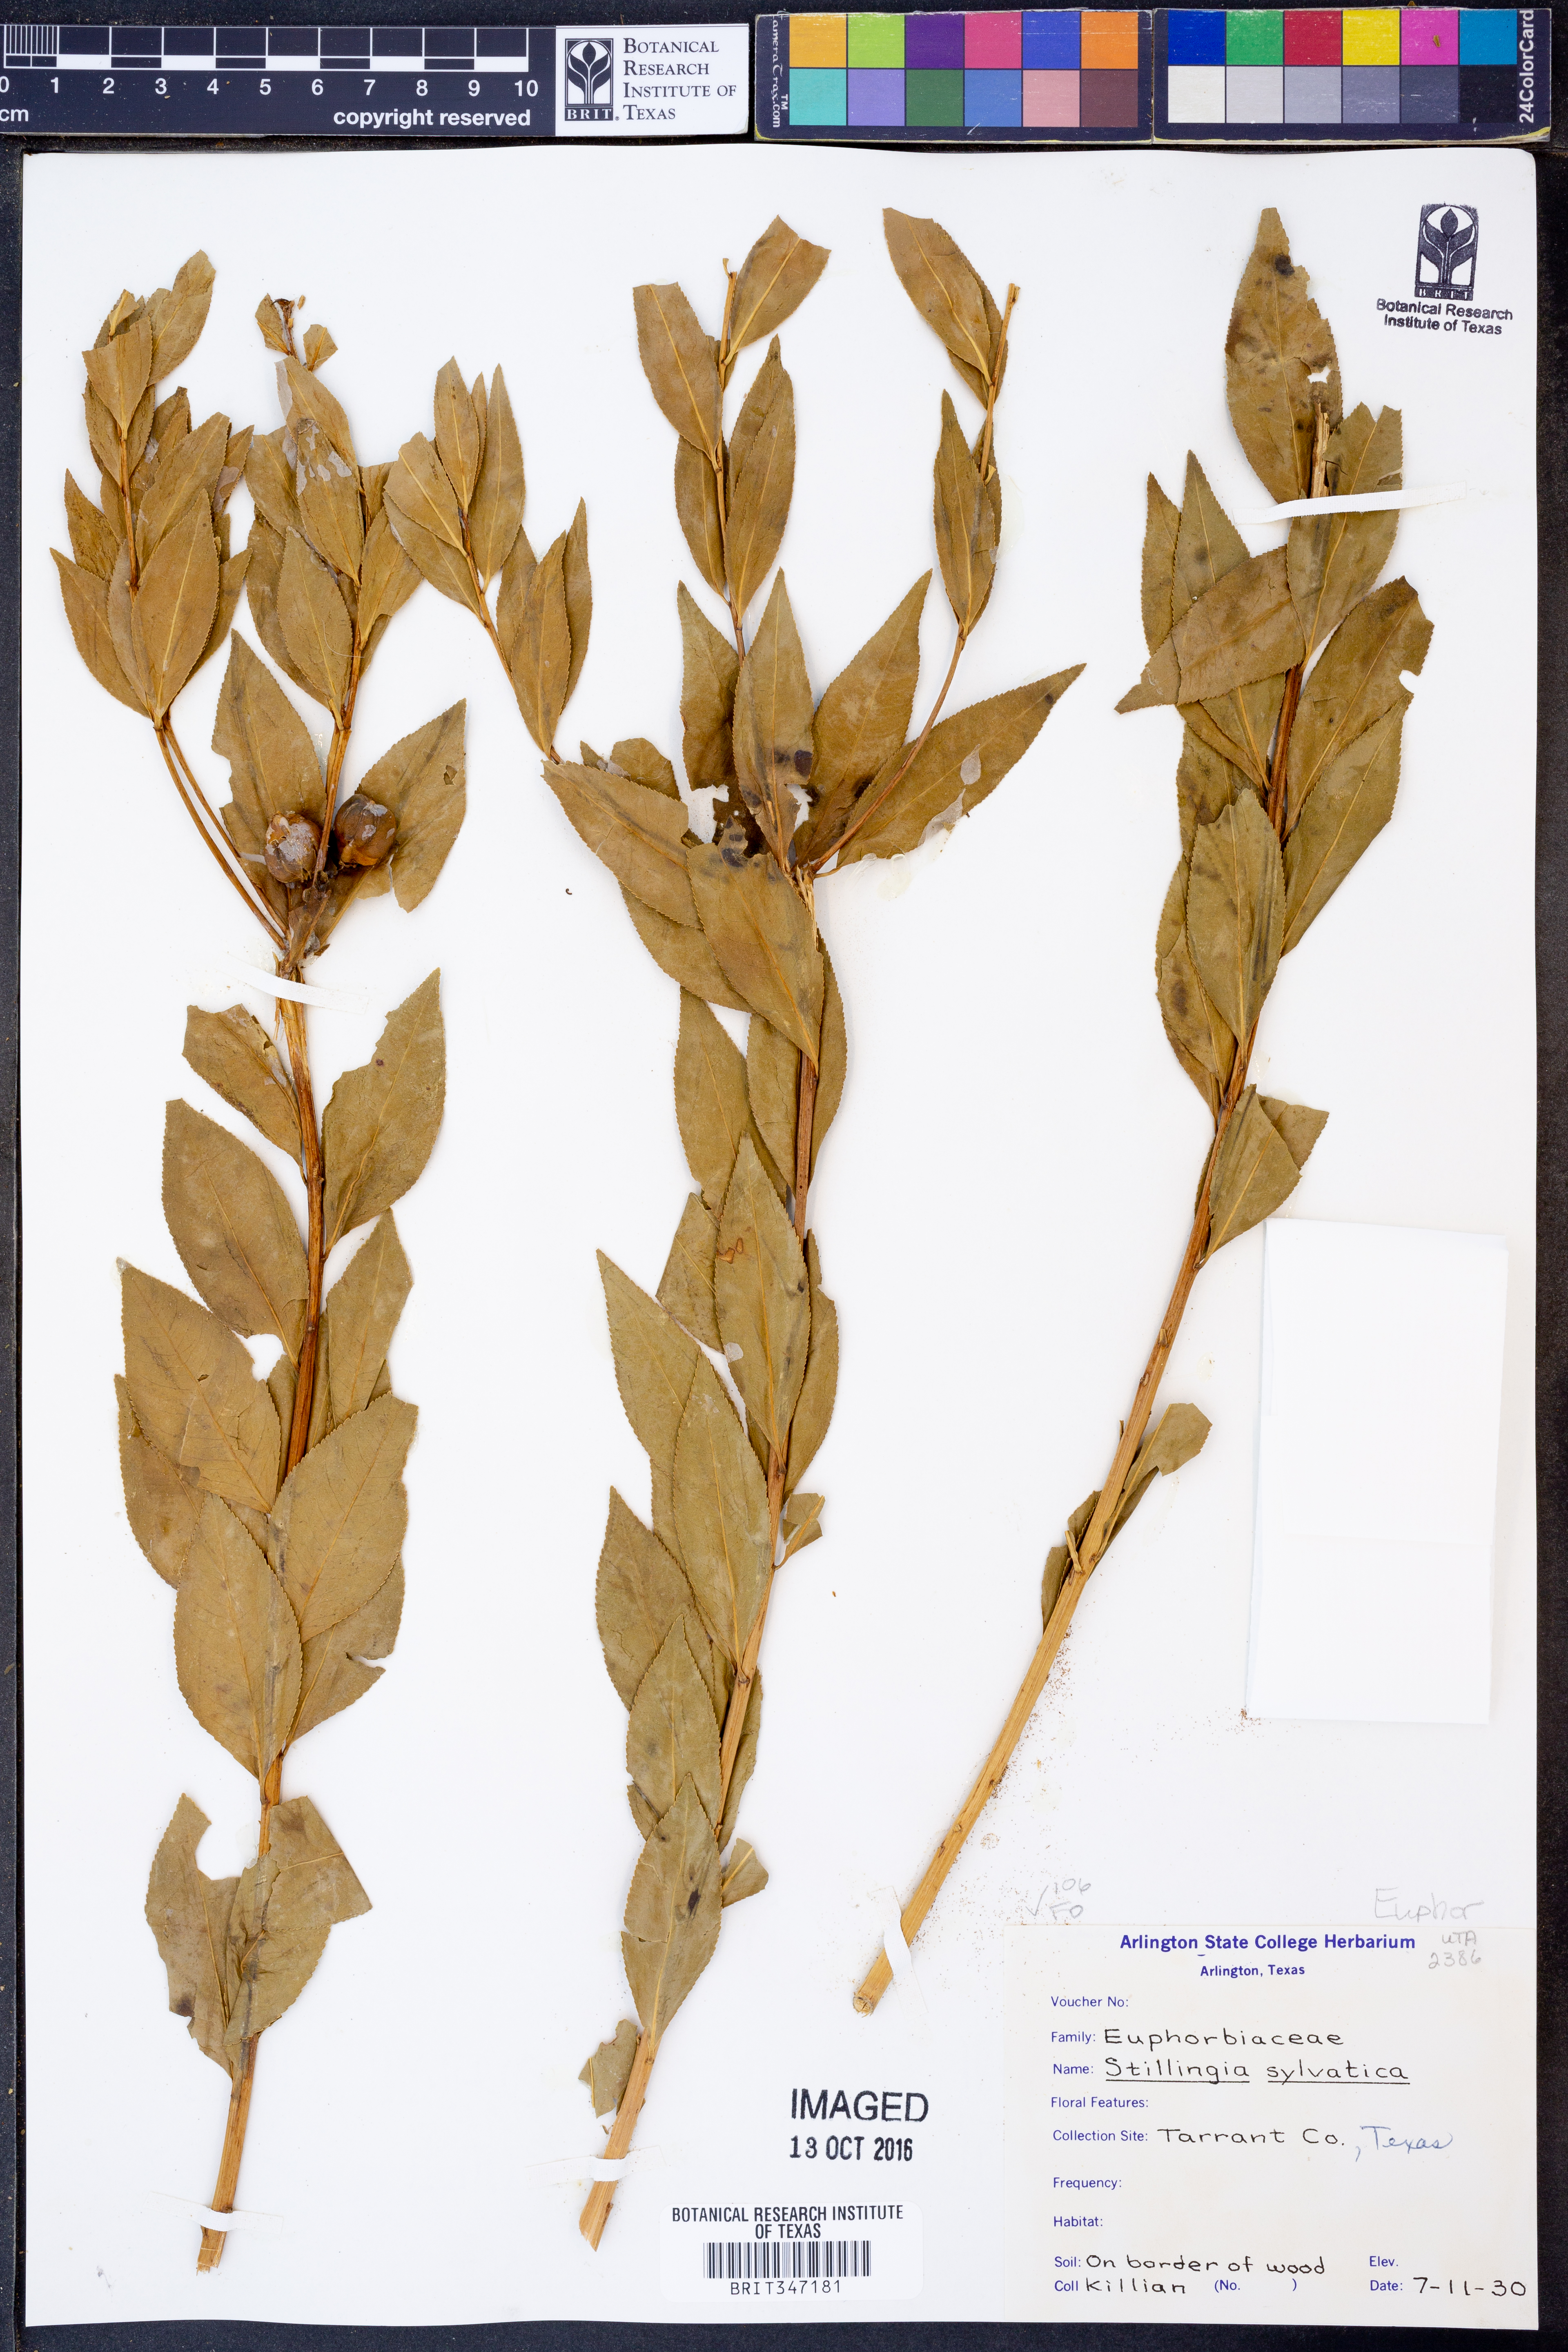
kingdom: Plantae
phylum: Tracheophyta
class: Magnoliopsida
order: Malpighiales
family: Euphorbiaceae
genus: Stillingia
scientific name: Stillingia sylvatica
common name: Queen's-delight
